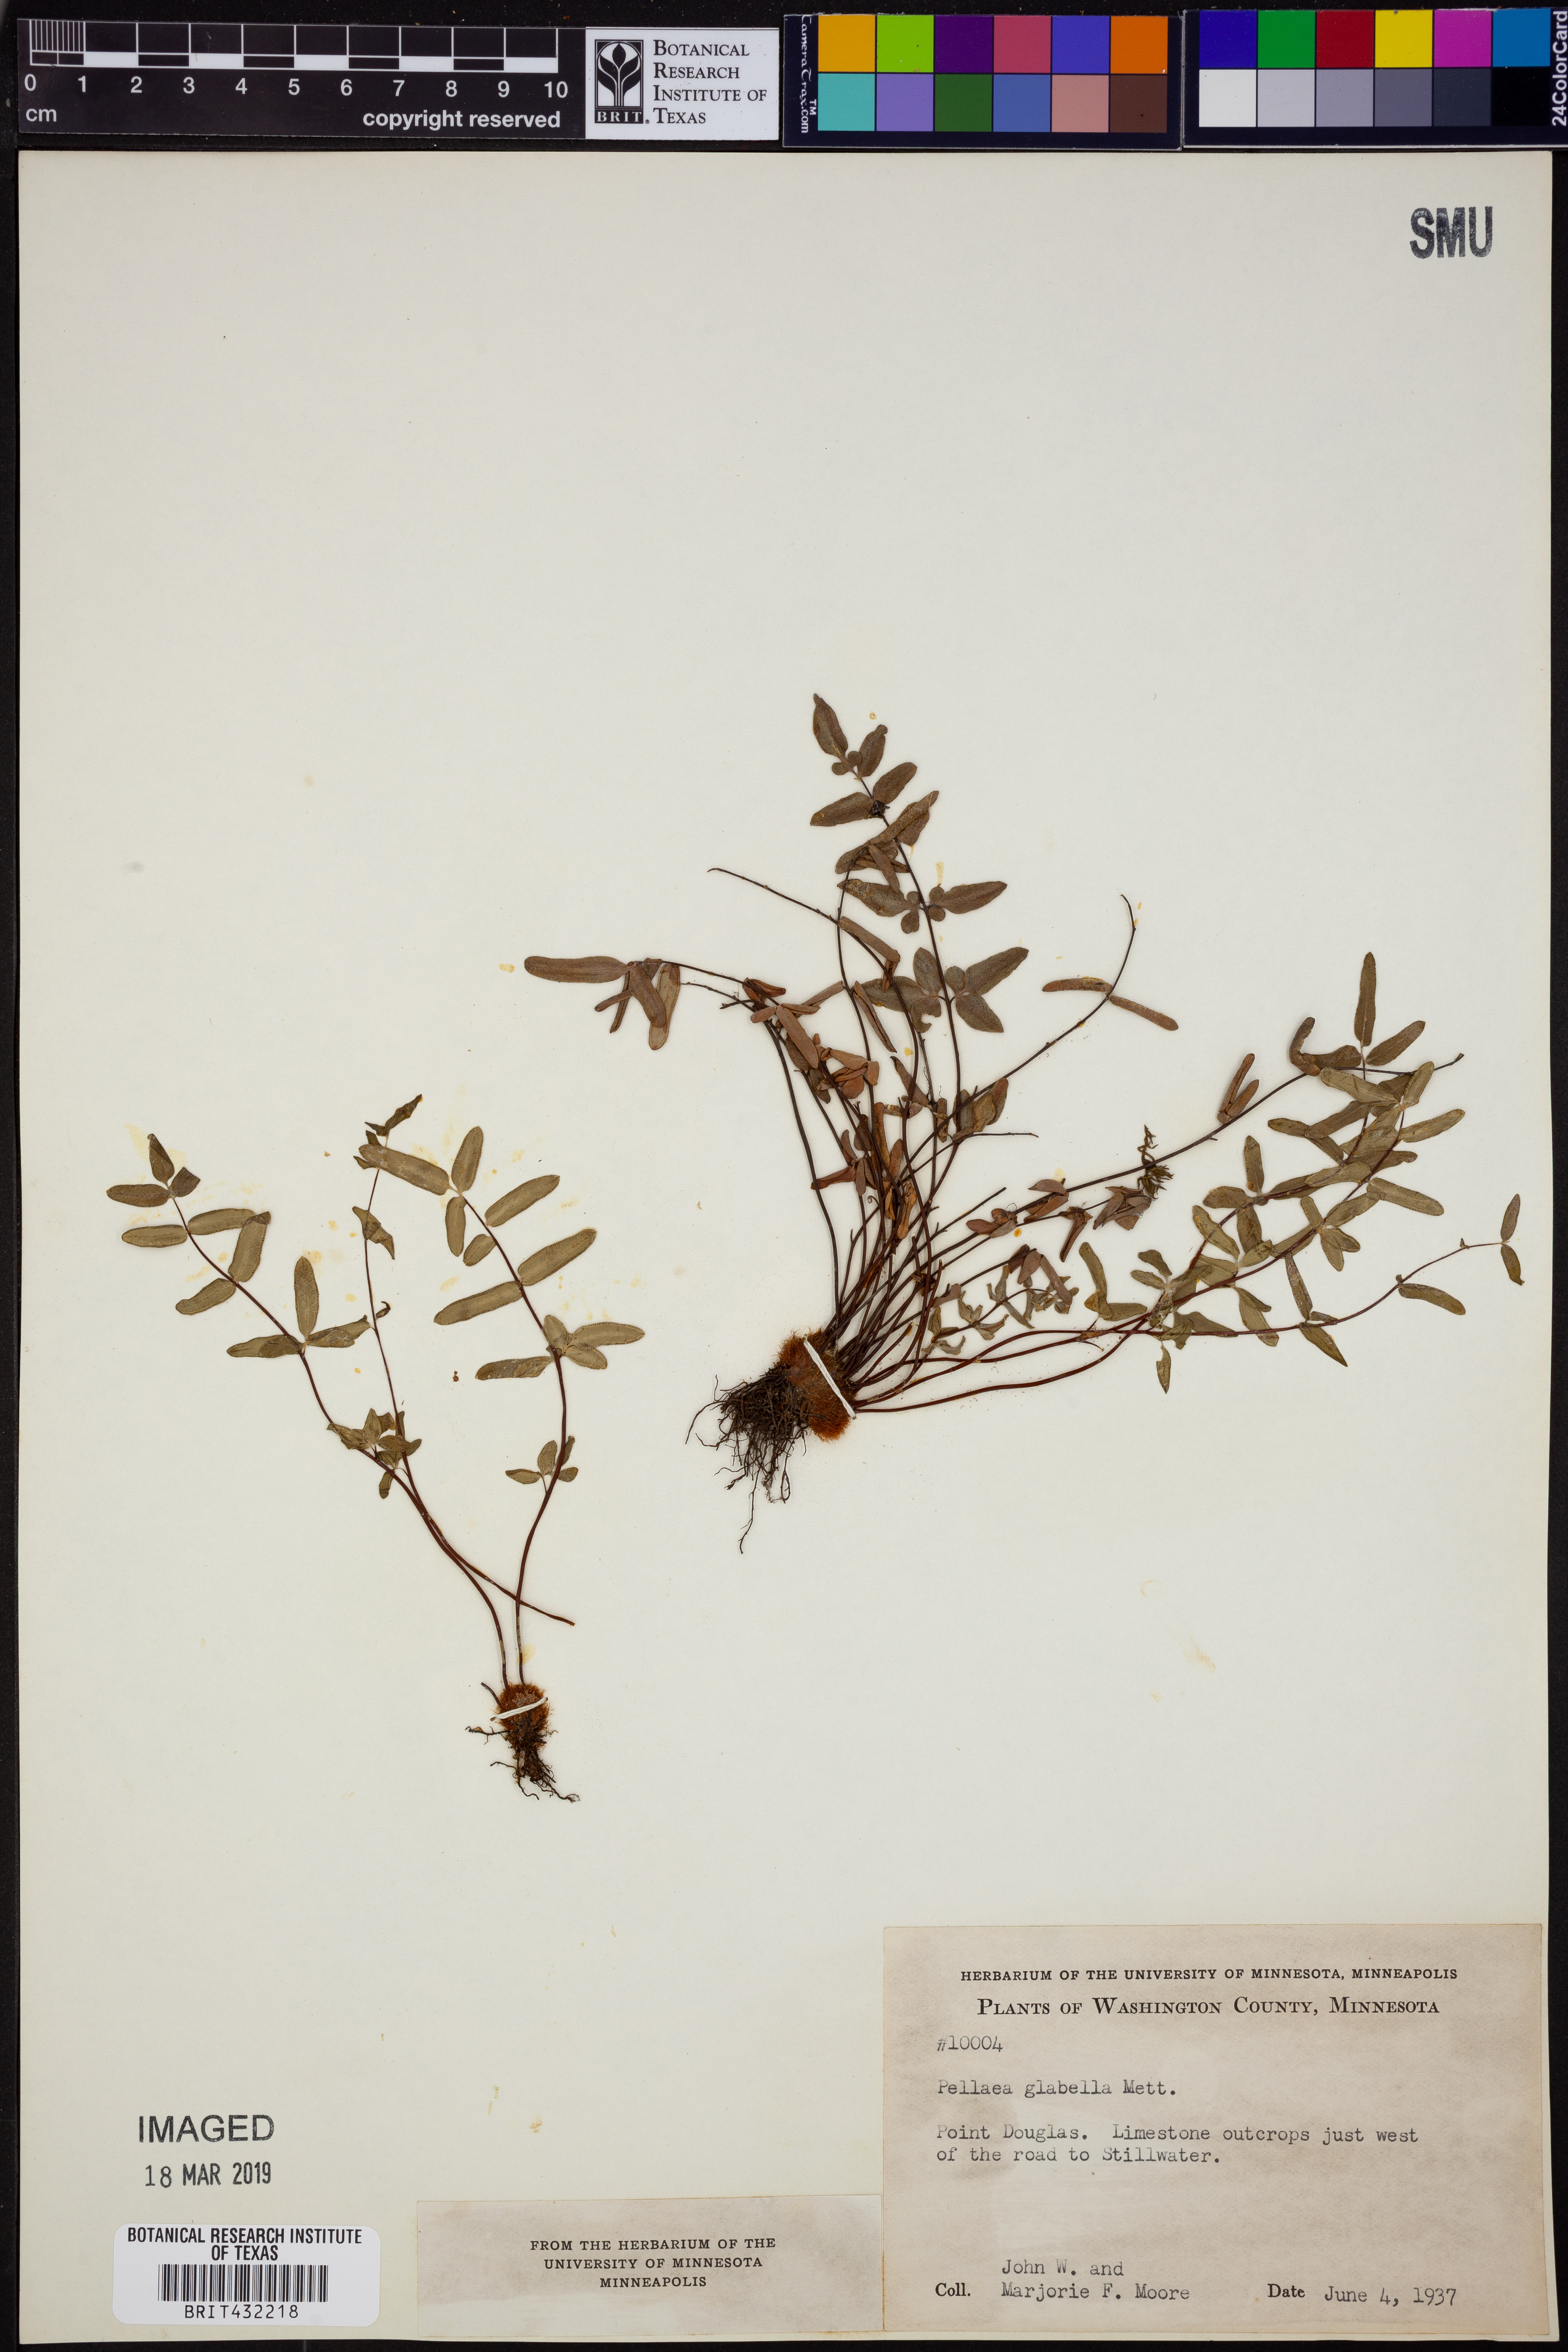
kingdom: Plantae
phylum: Tracheophyta
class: Polypodiopsida
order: Polypodiales
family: Pteridaceae
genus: Pellaea
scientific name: Pellaea glabella
